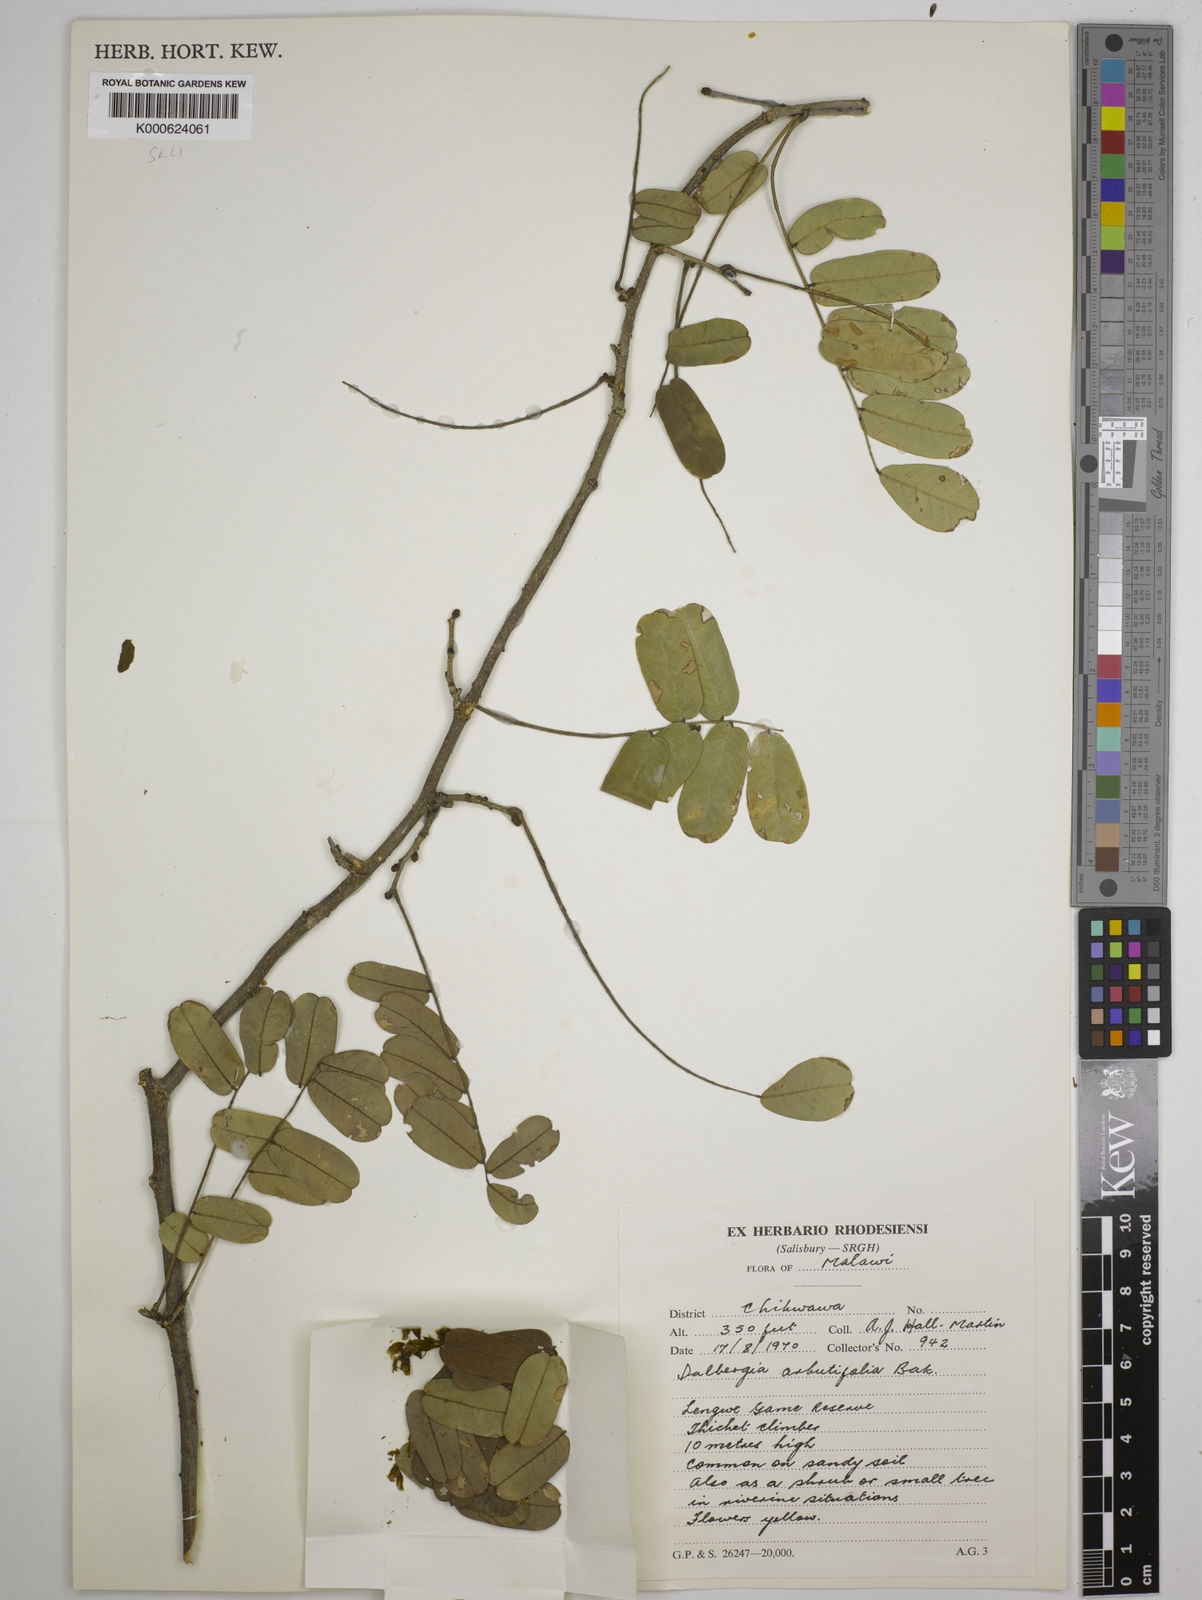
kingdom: Plantae
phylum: Tracheophyta
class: Magnoliopsida
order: Fabales
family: Fabaceae
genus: Dalbergia
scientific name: Dalbergia arbutifolia
